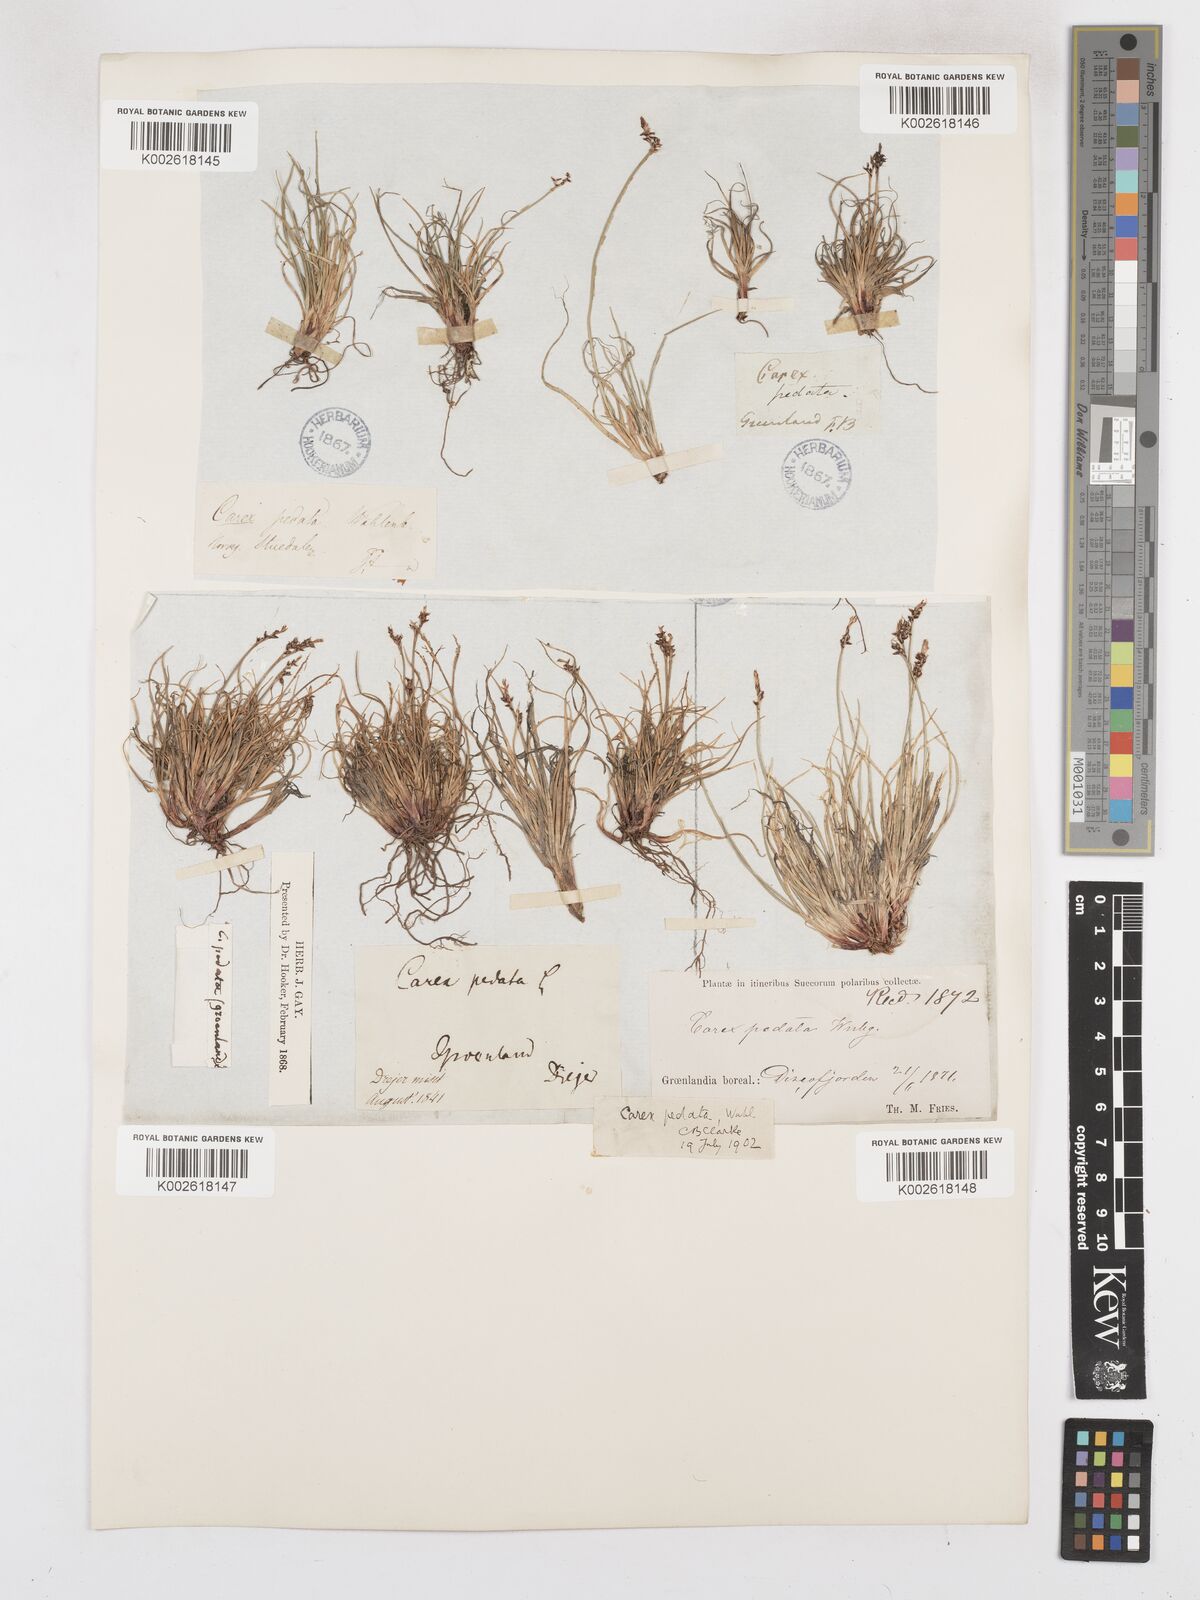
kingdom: Plantae
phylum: Tracheophyta
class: Liliopsida
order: Poales
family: Cyperaceae
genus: Carex
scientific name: Carex glacialis
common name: Newfoundland sedge
